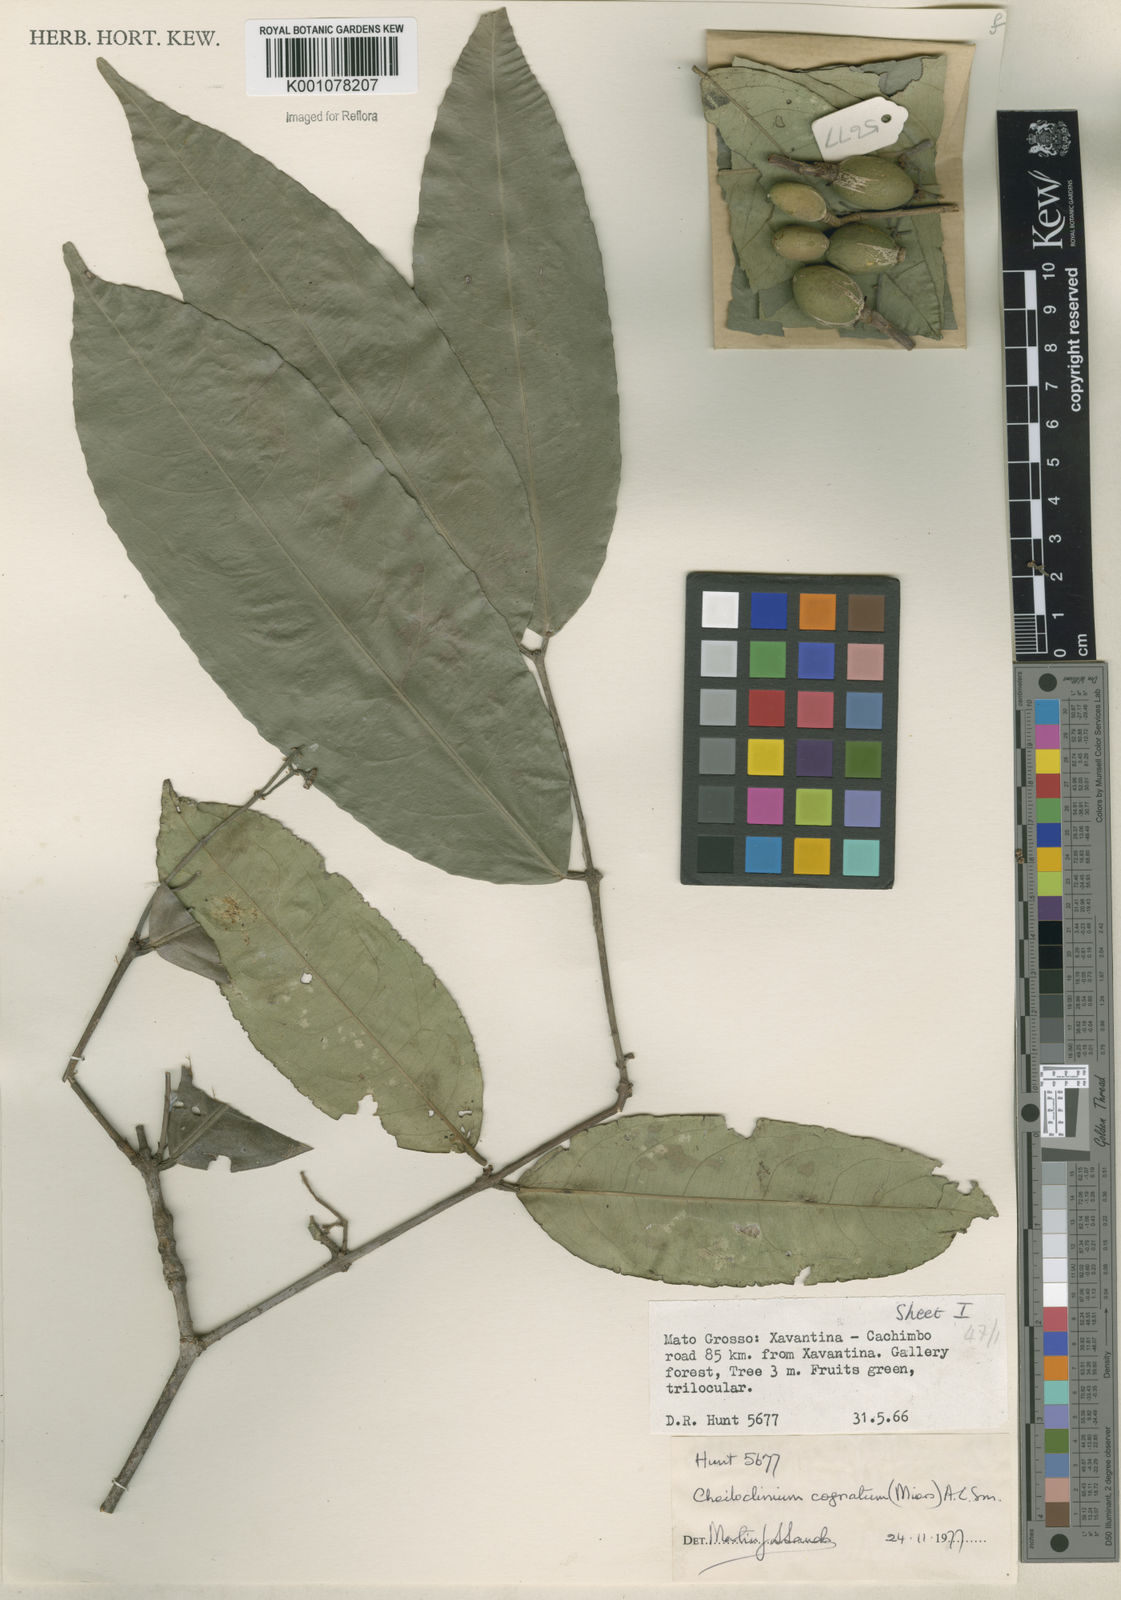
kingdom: Plantae
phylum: Tracheophyta
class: Magnoliopsida
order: Celastrales
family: Celastraceae
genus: Cheiloclinium
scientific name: Cheiloclinium cognatum
